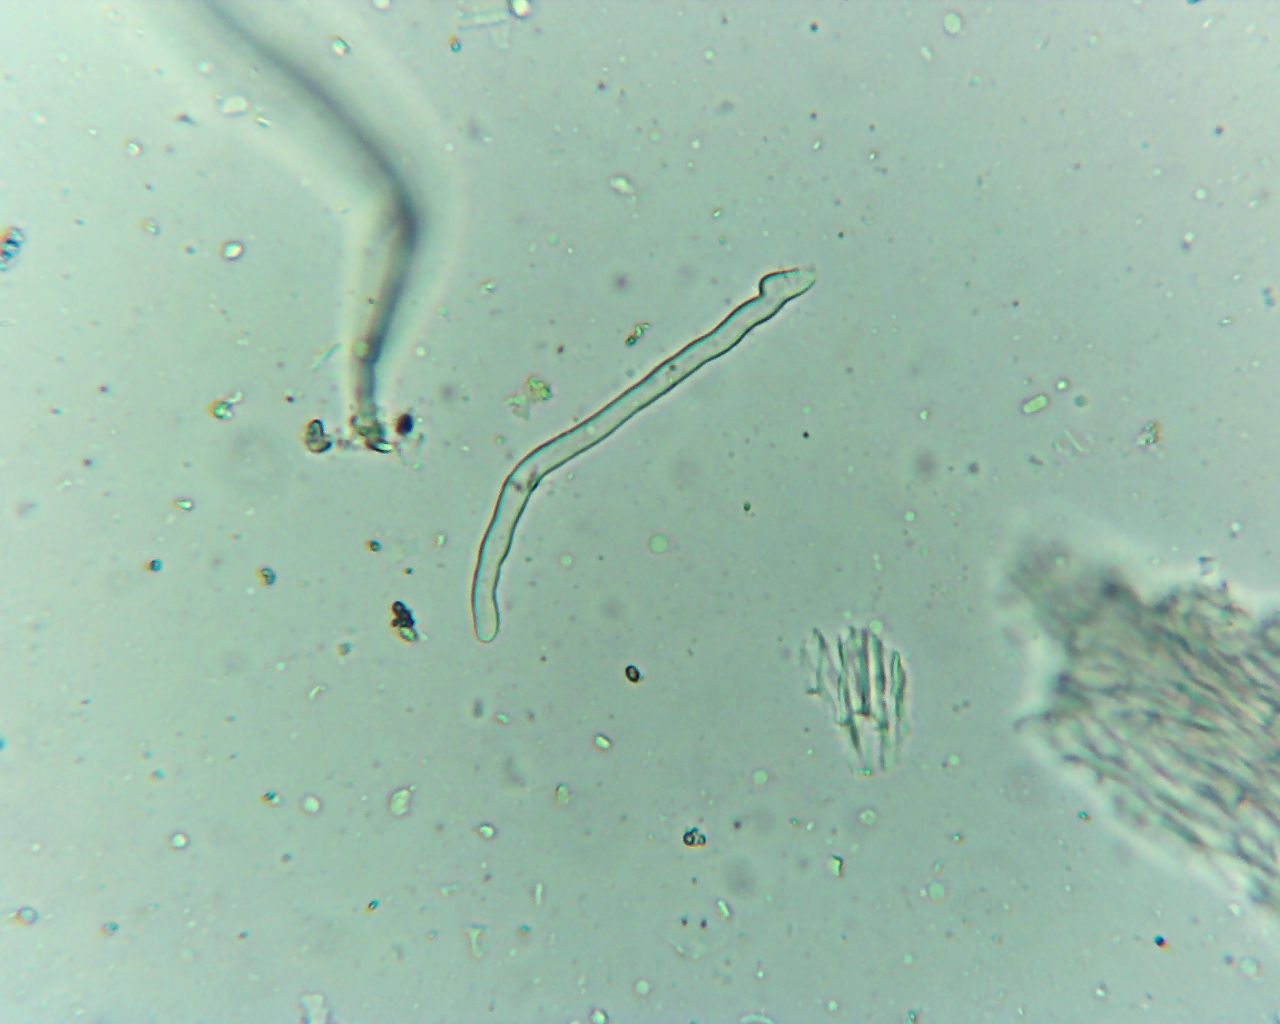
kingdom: Fungi
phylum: Ascomycota
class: Pezizomycetes
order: Pezizales
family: Sarcoscyphaceae
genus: Sarcoscypha
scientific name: Sarcoscypha austriaca
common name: krølhåret pragtbæger
